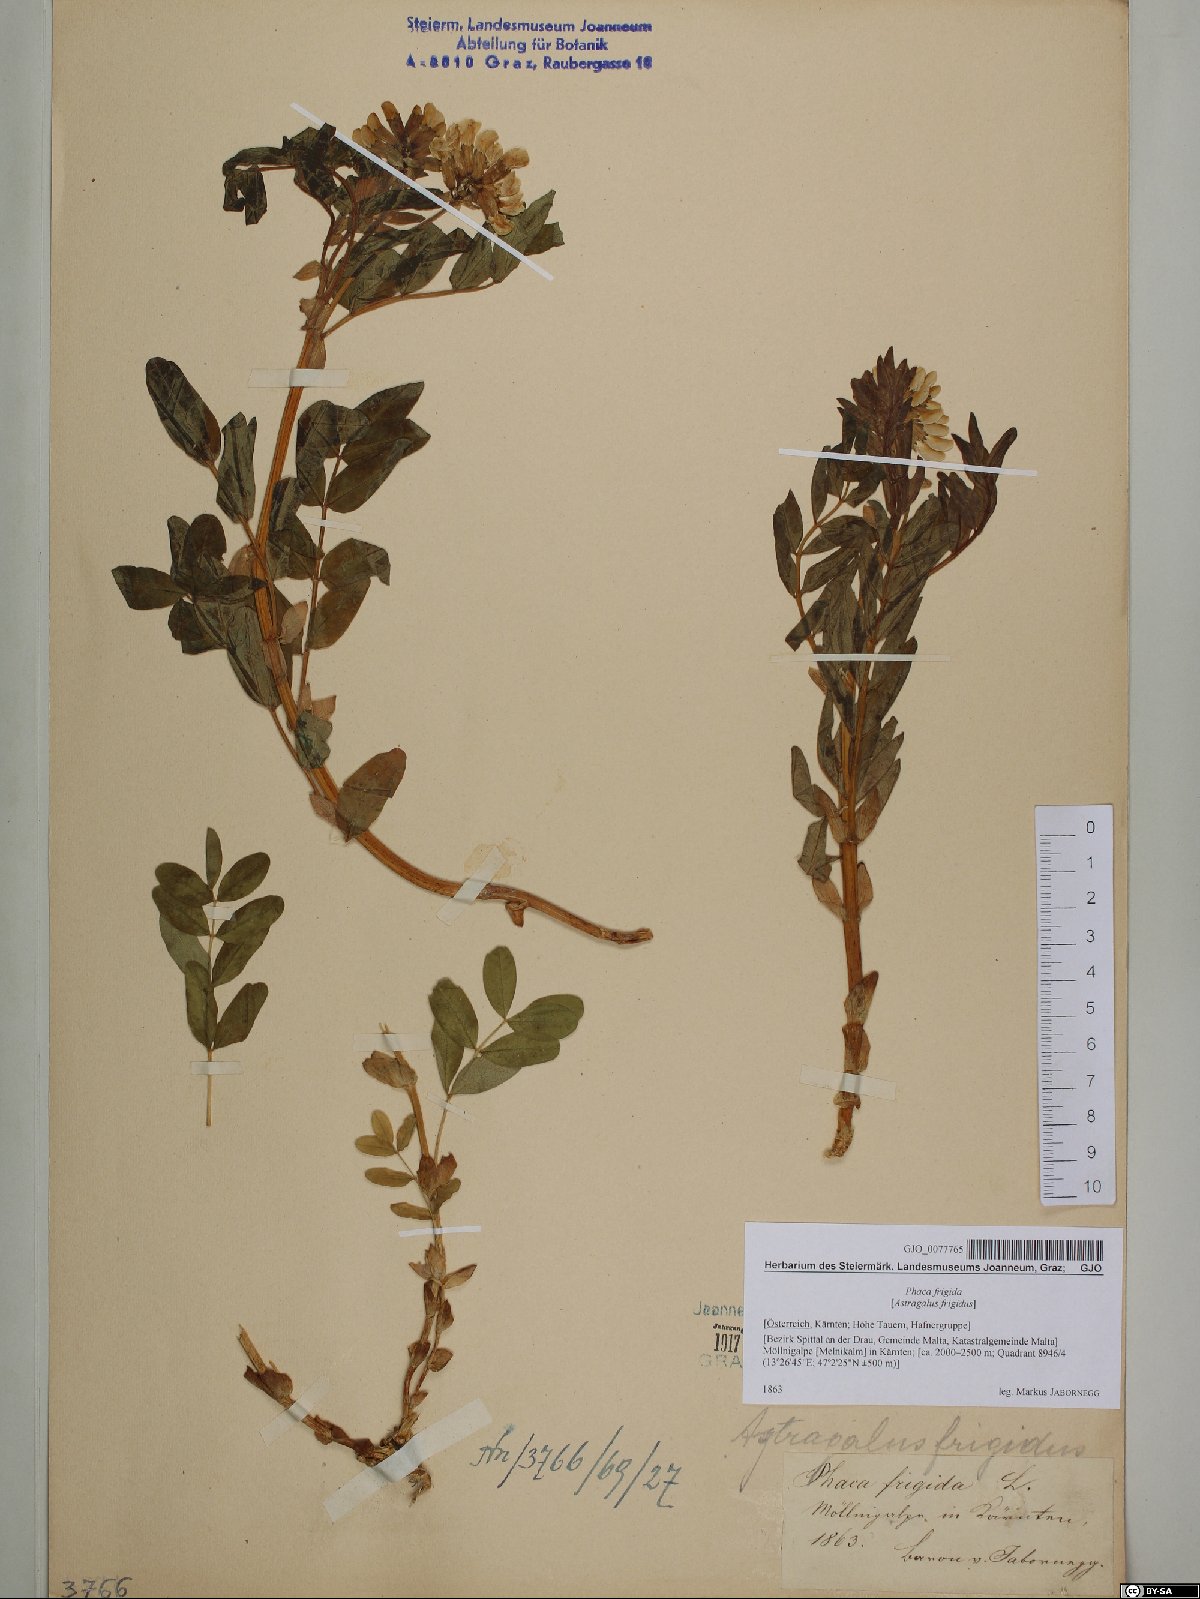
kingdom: Plantae
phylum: Tracheophyta
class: Magnoliopsida
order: Fabales
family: Fabaceae
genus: Astragalus
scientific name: Astragalus frigidus
